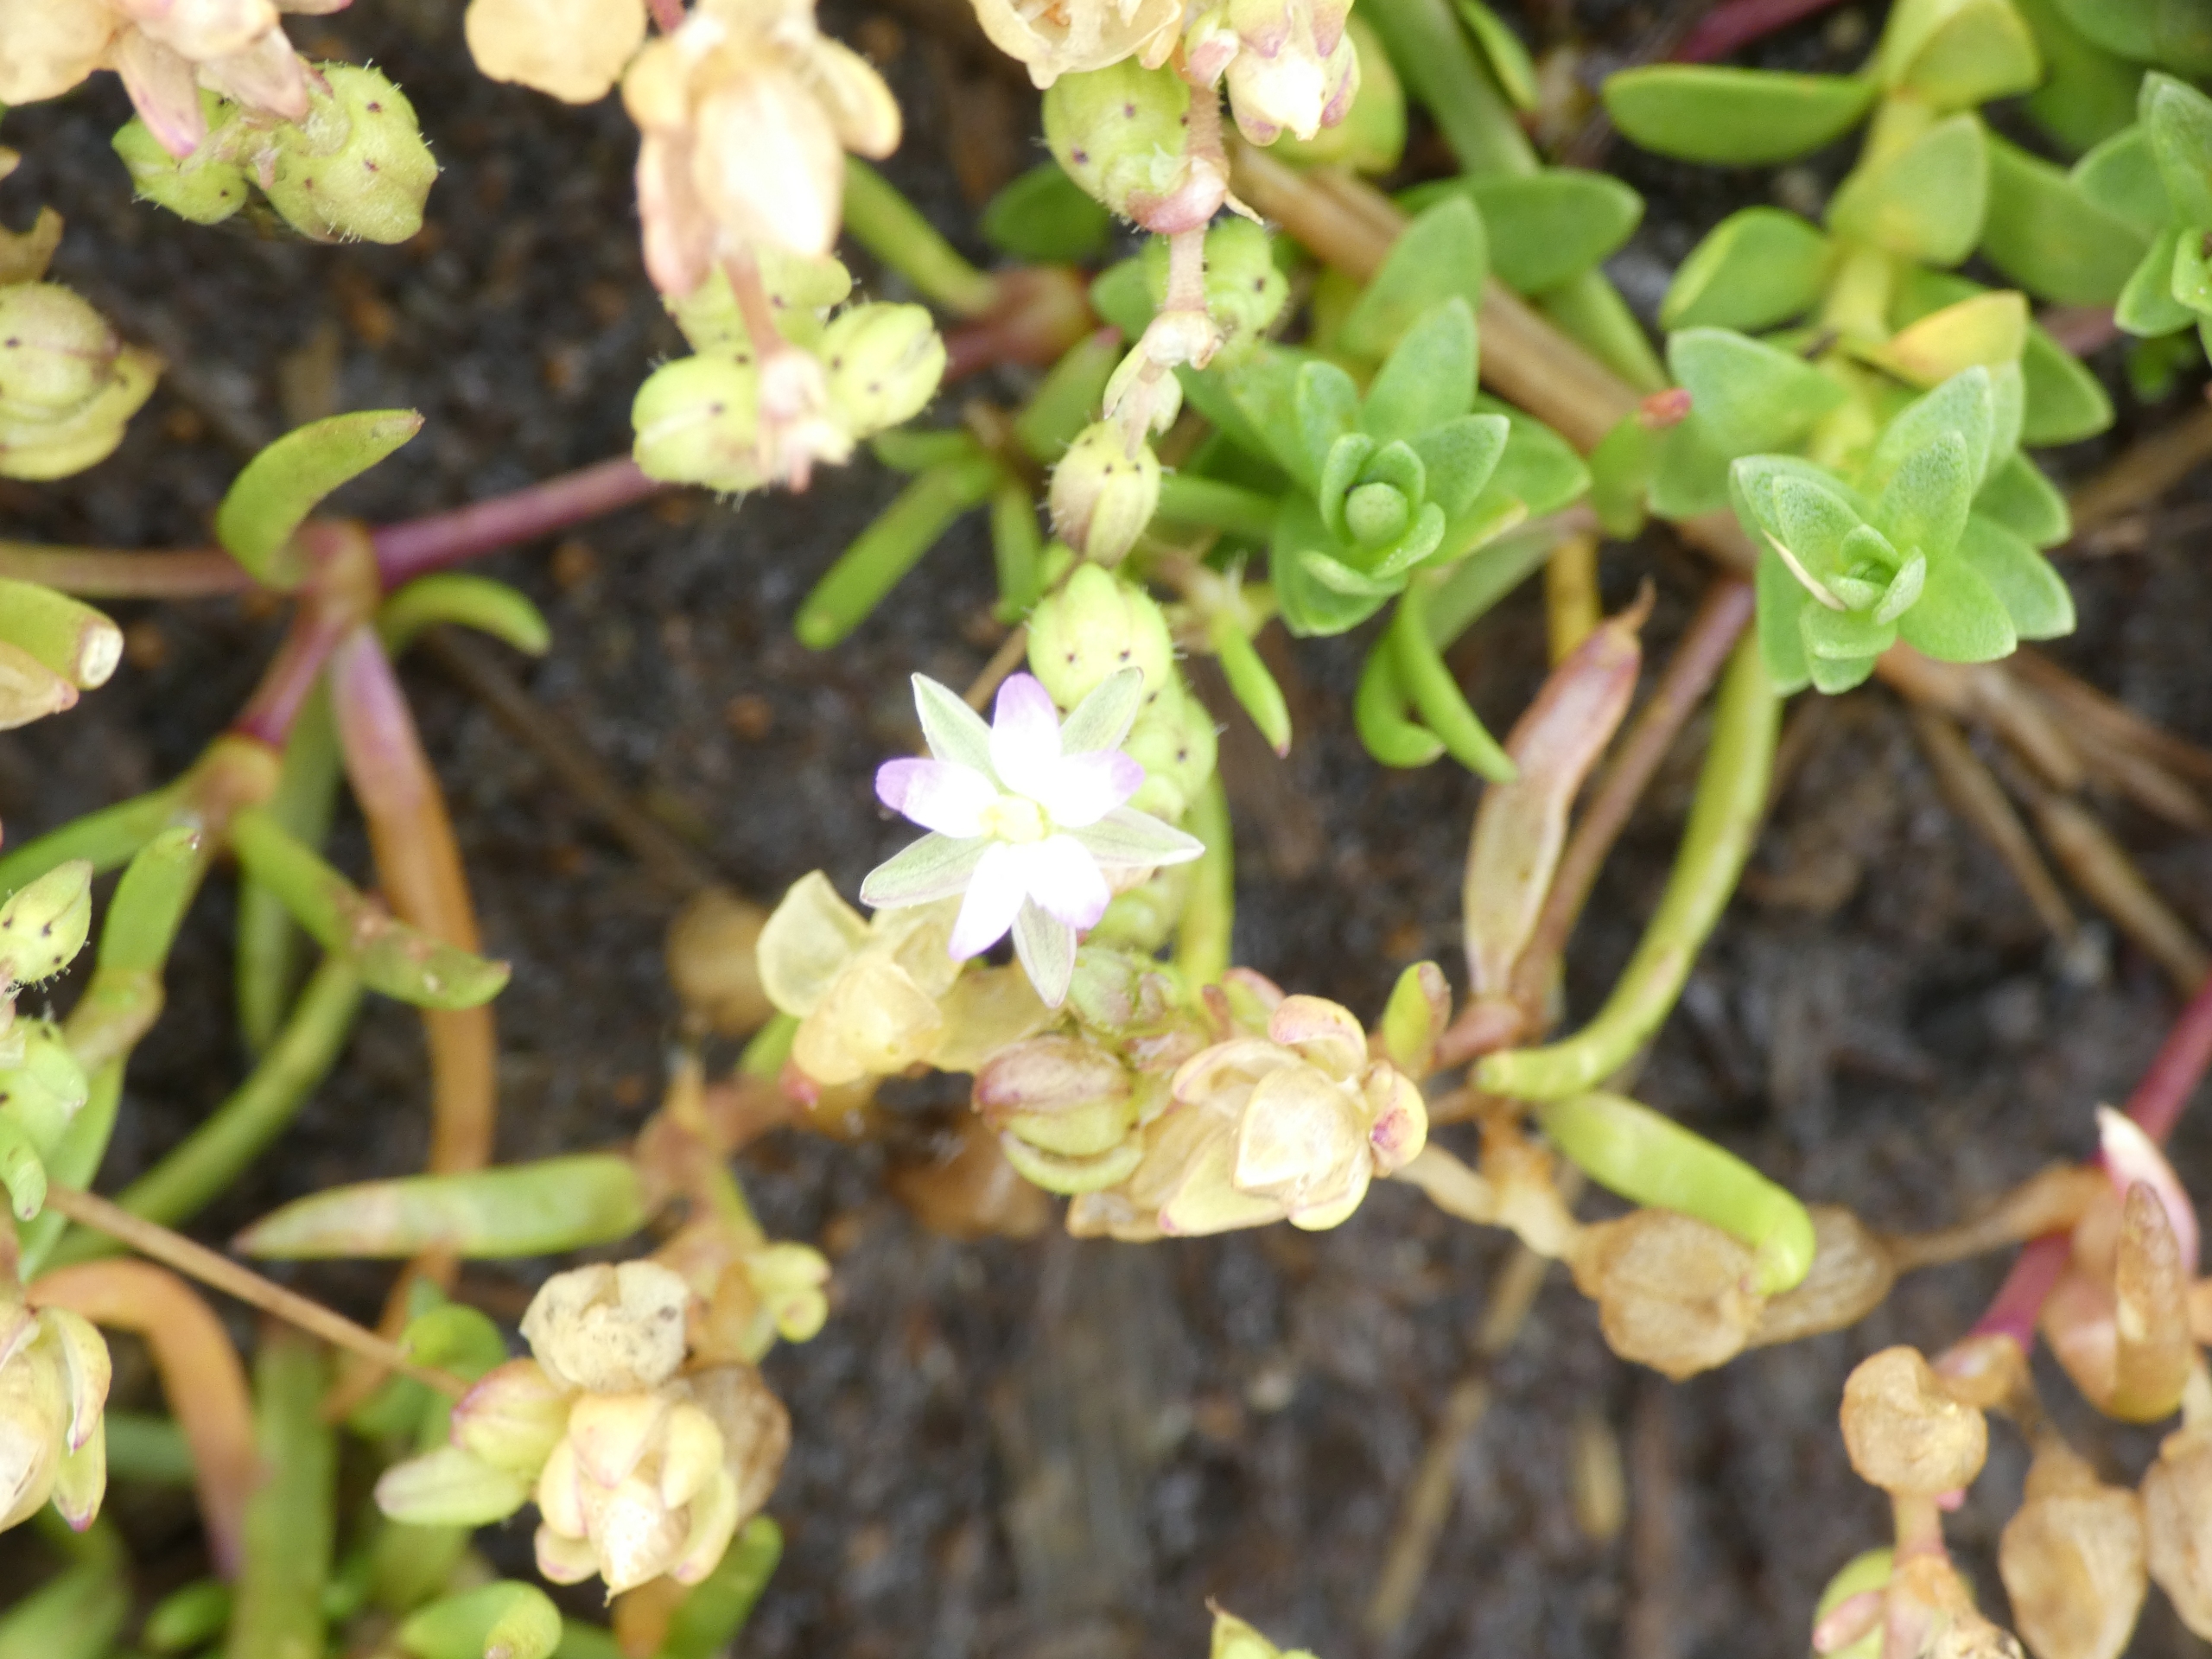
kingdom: Plantae
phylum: Tracheophyta
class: Magnoliopsida
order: Caryophyllales
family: Caryophyllaceae
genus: Spergularia
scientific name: Spergularia marina
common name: Kødet hindeknæ
